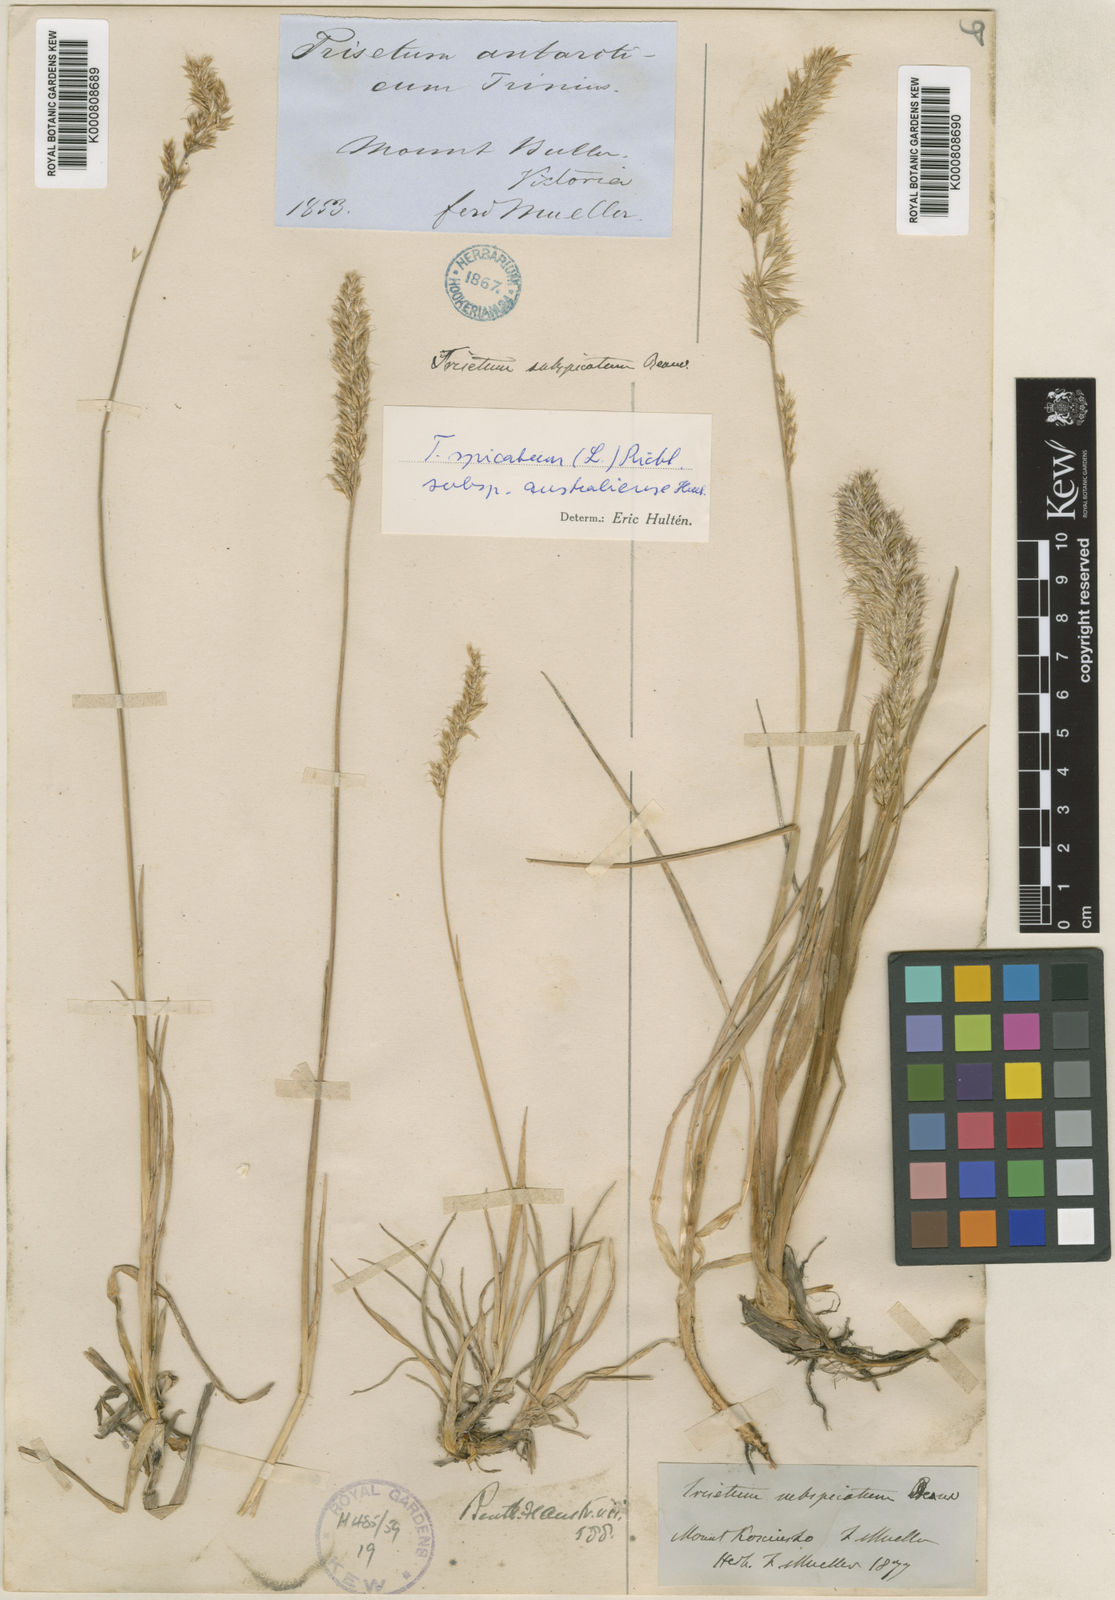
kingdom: Plantae
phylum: Tracheophyta
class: Liliopsida
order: Poales
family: Poaceae
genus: Koeleria
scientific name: Koeleria spicata
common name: Mountain trisetum
